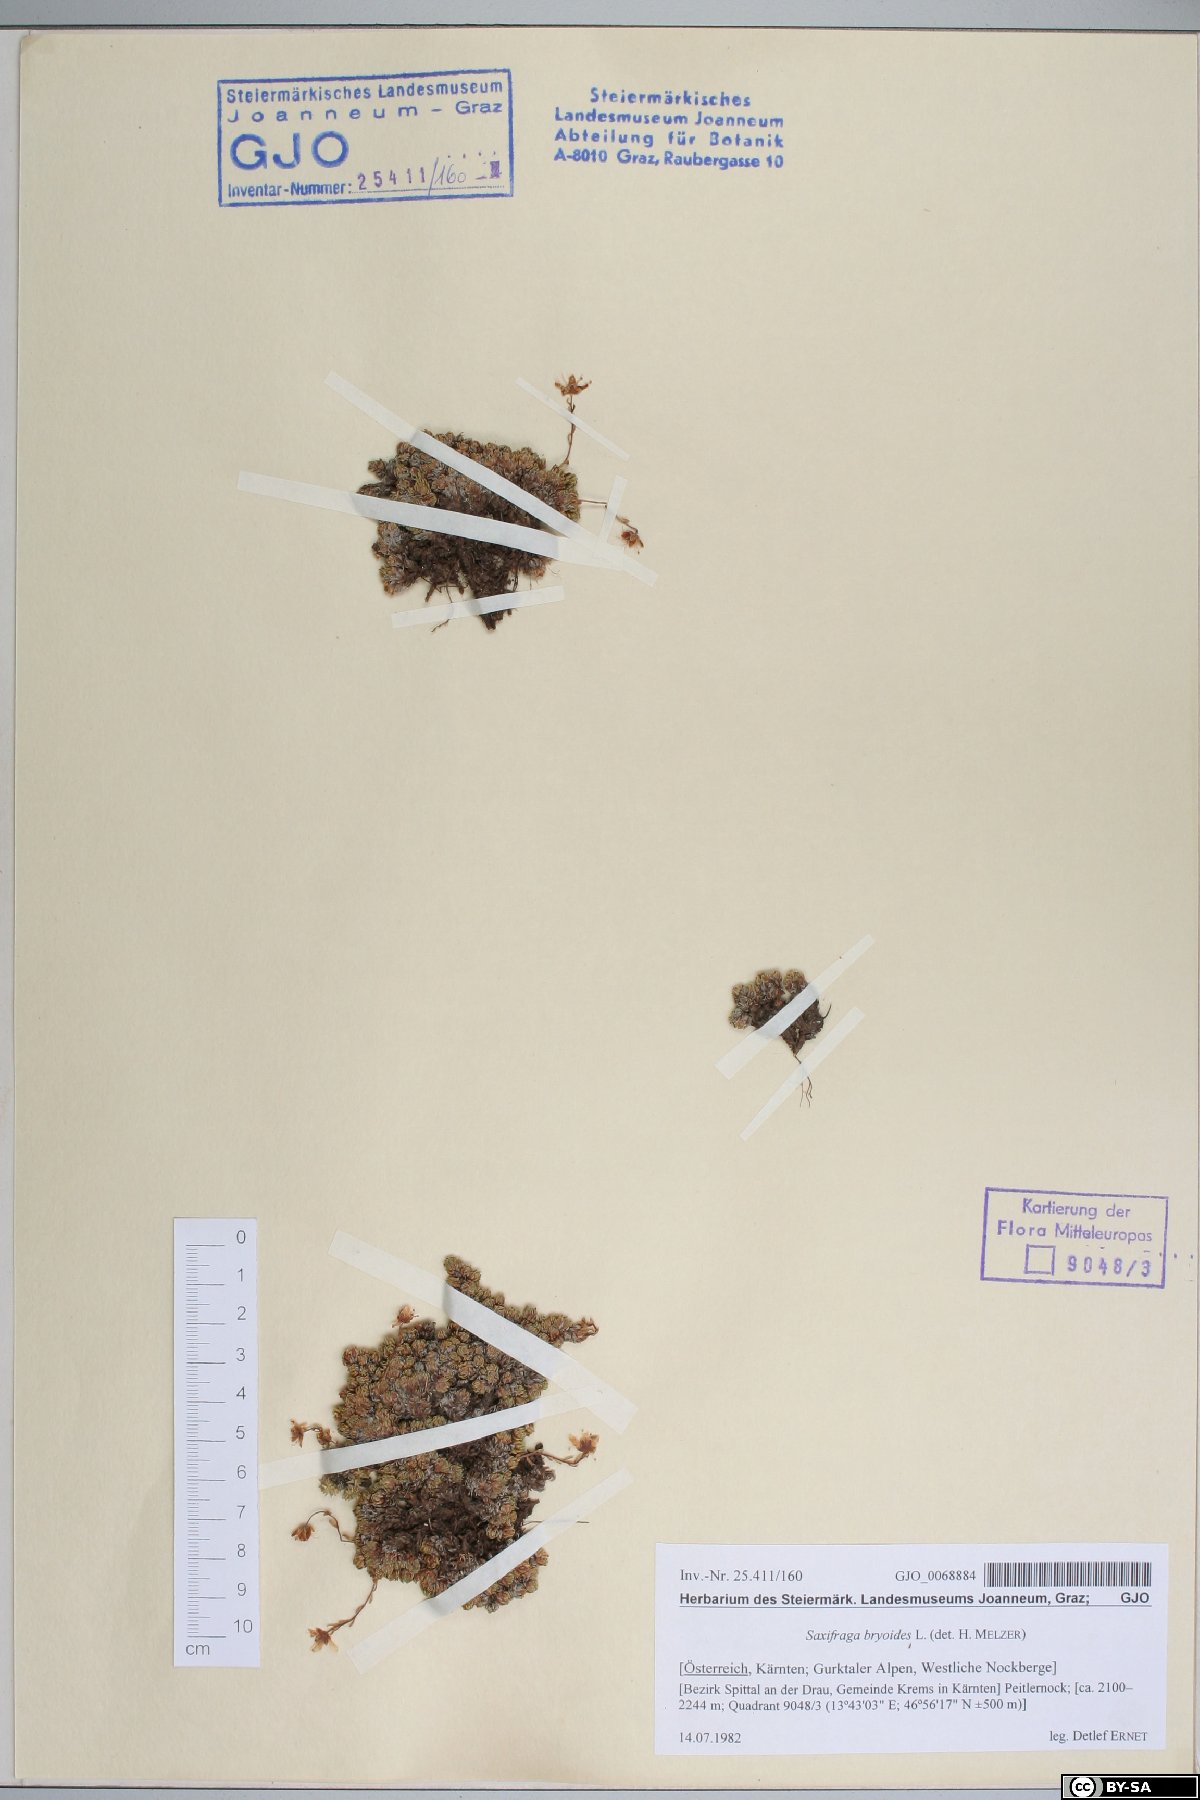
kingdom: Plantae
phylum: Tracheophyta
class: Magnoliopsida
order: Saxifragales
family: Saxifragaceae
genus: Saxifraga
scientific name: Saxifraga bryoides
